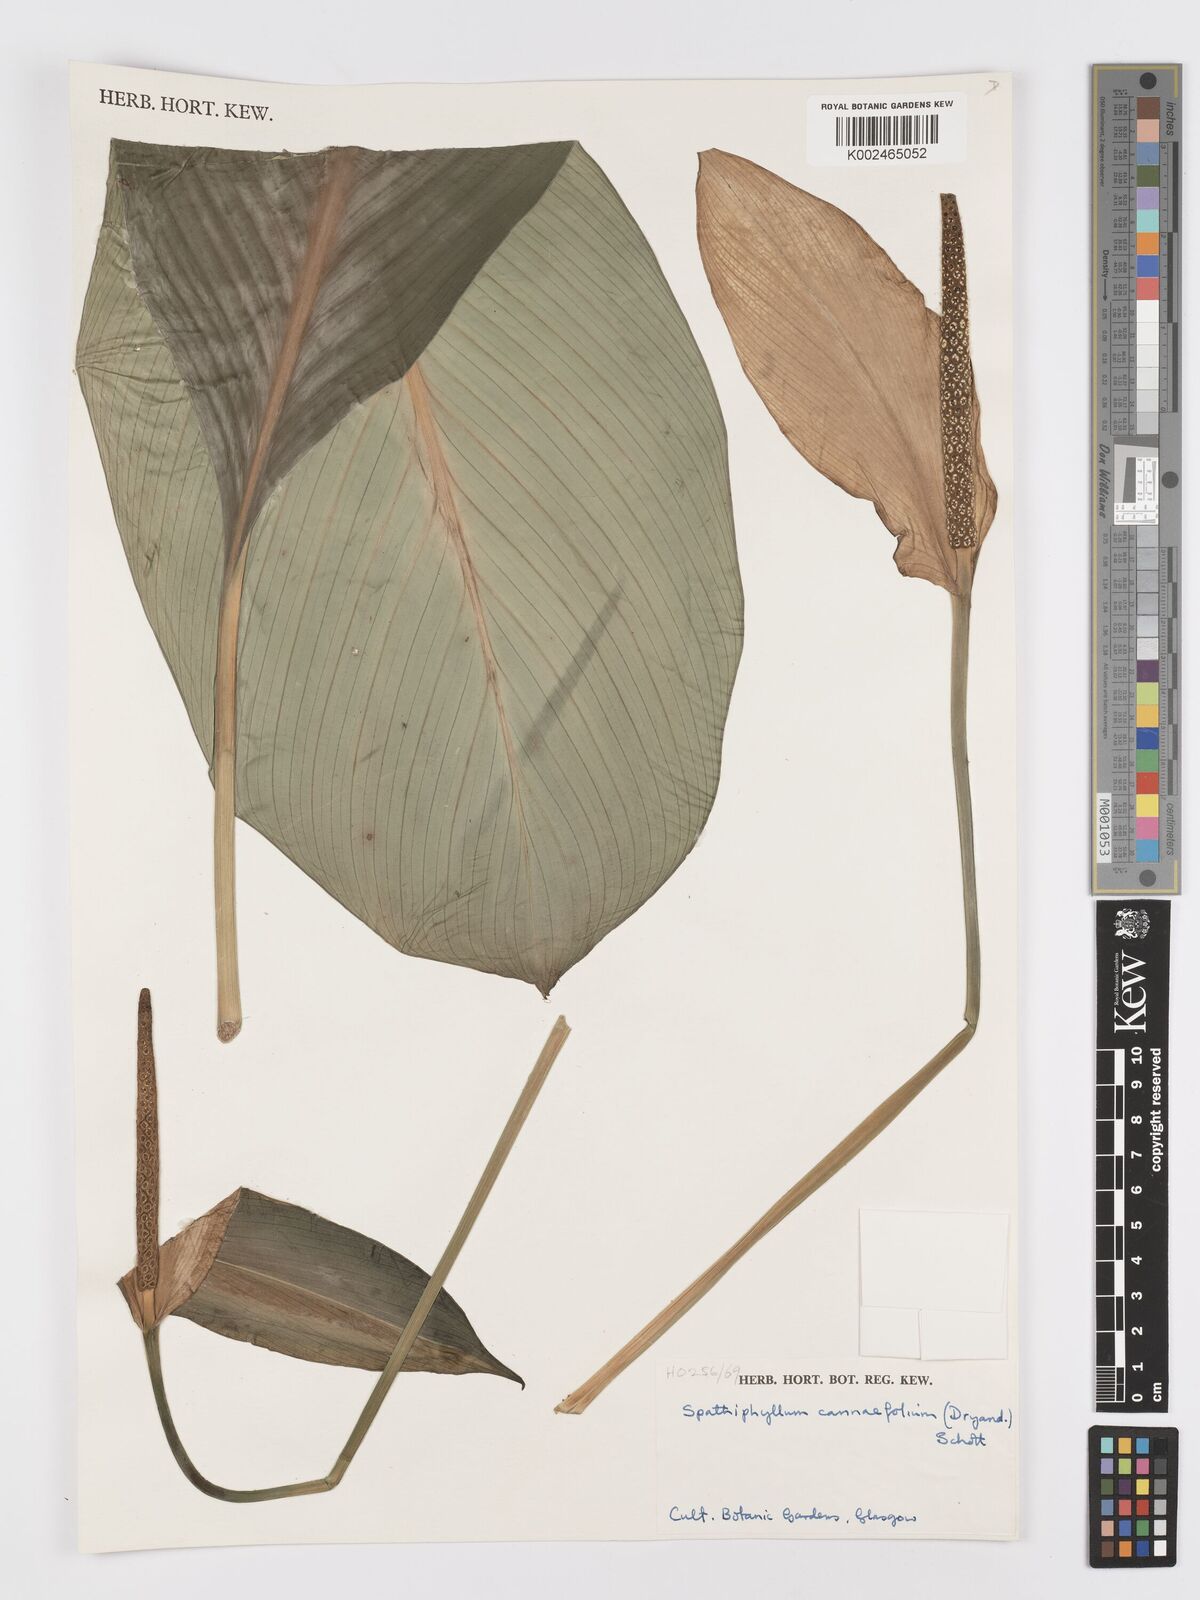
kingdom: Plantae
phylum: Tracheophyta
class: Liliopsida
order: Alismatales
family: Araceae
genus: Spathiphyllum
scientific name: Spathiphyllum cannifolium
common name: Spatheflower
